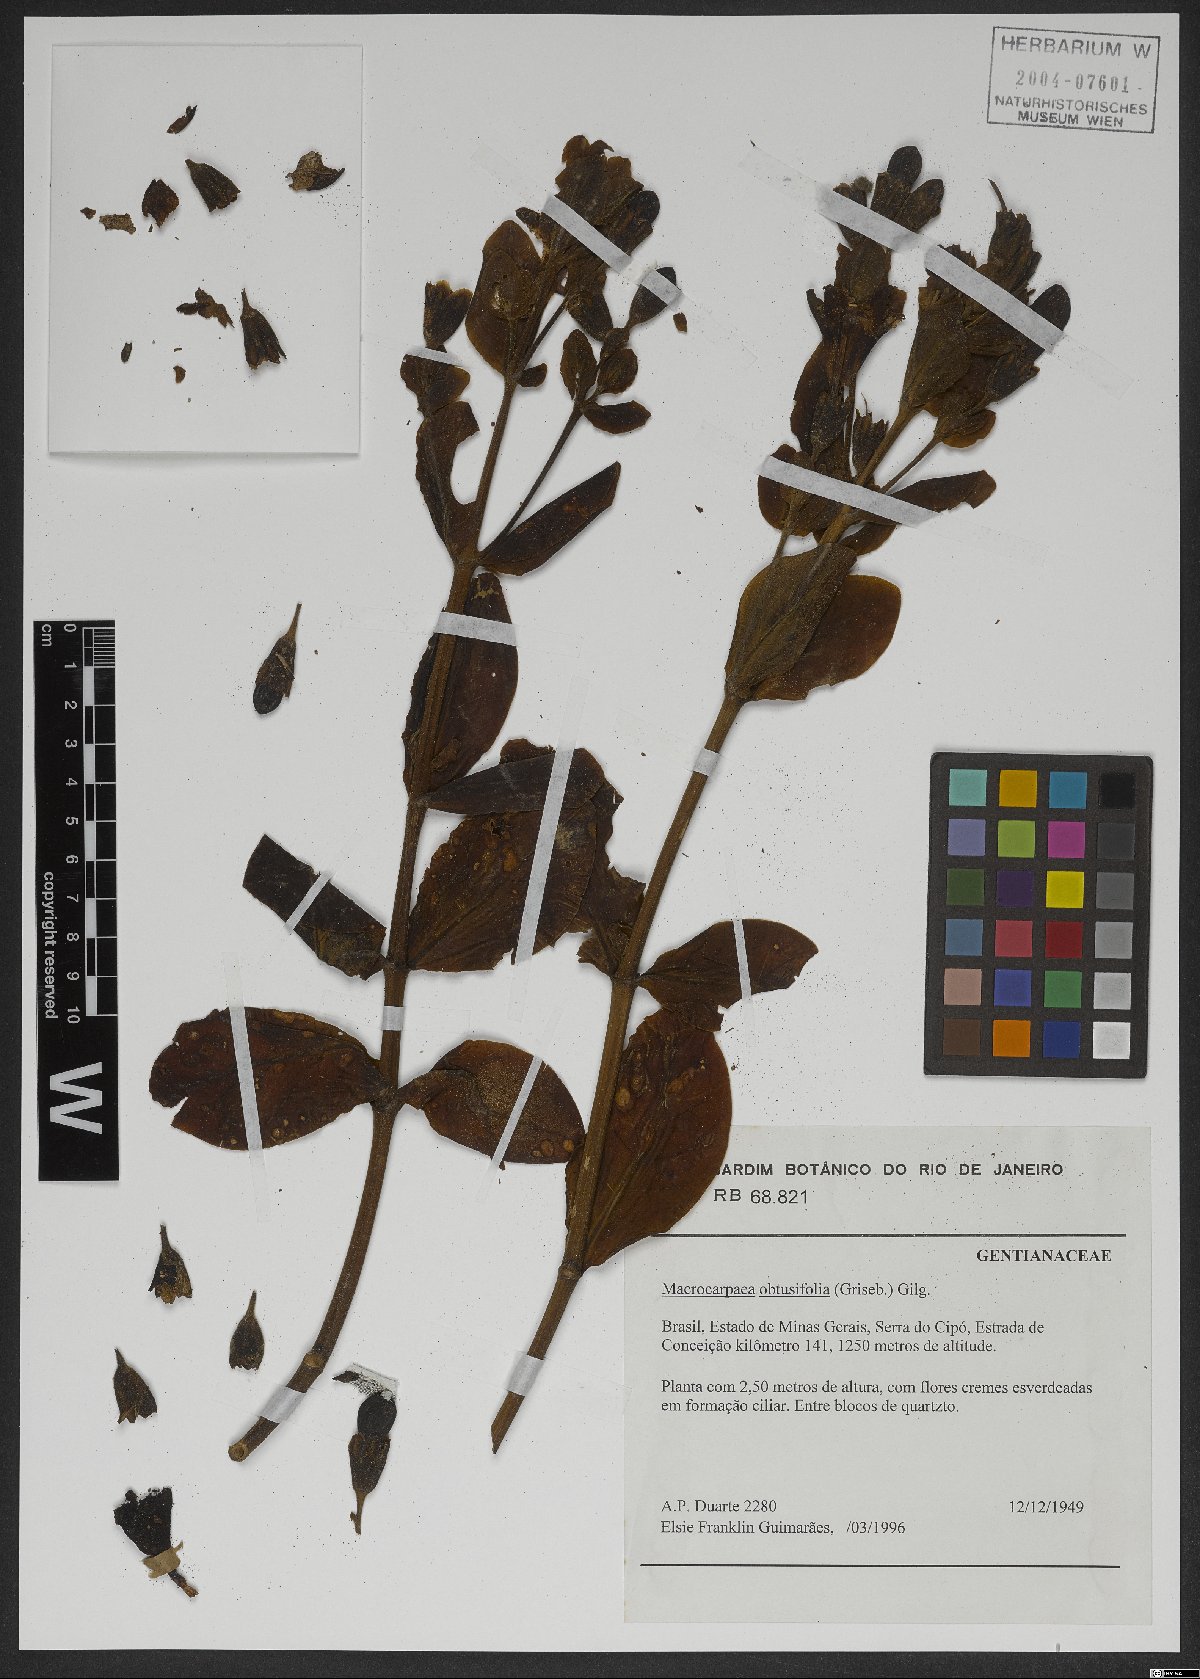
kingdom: Plantae
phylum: Tracheophyta
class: Magnoliopsida
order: Gentianales
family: Gentianaceae
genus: Macrocarpaea
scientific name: Macrocarpaea obtusifolia
